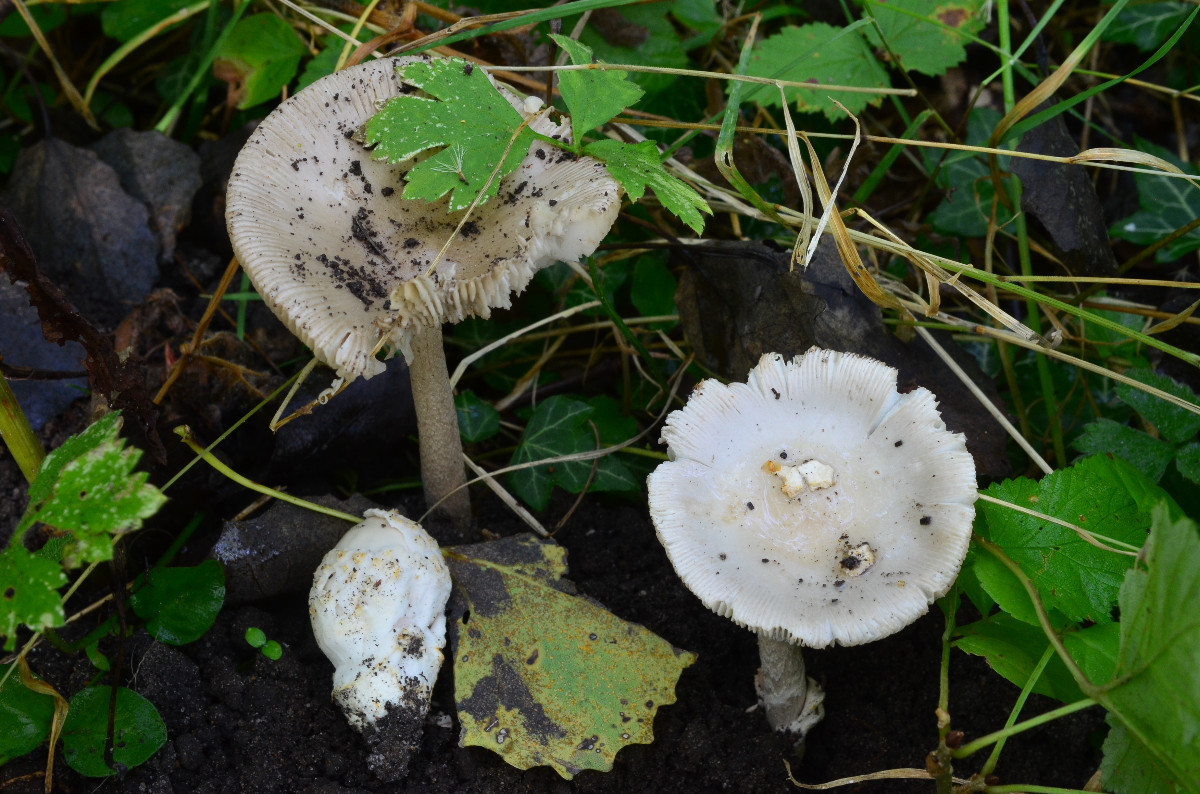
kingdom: Fungi
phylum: Basidiomycota
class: Agaricomycetes
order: Agaricales
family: Amanitaceae
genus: Amanita
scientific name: Amanita simulans
